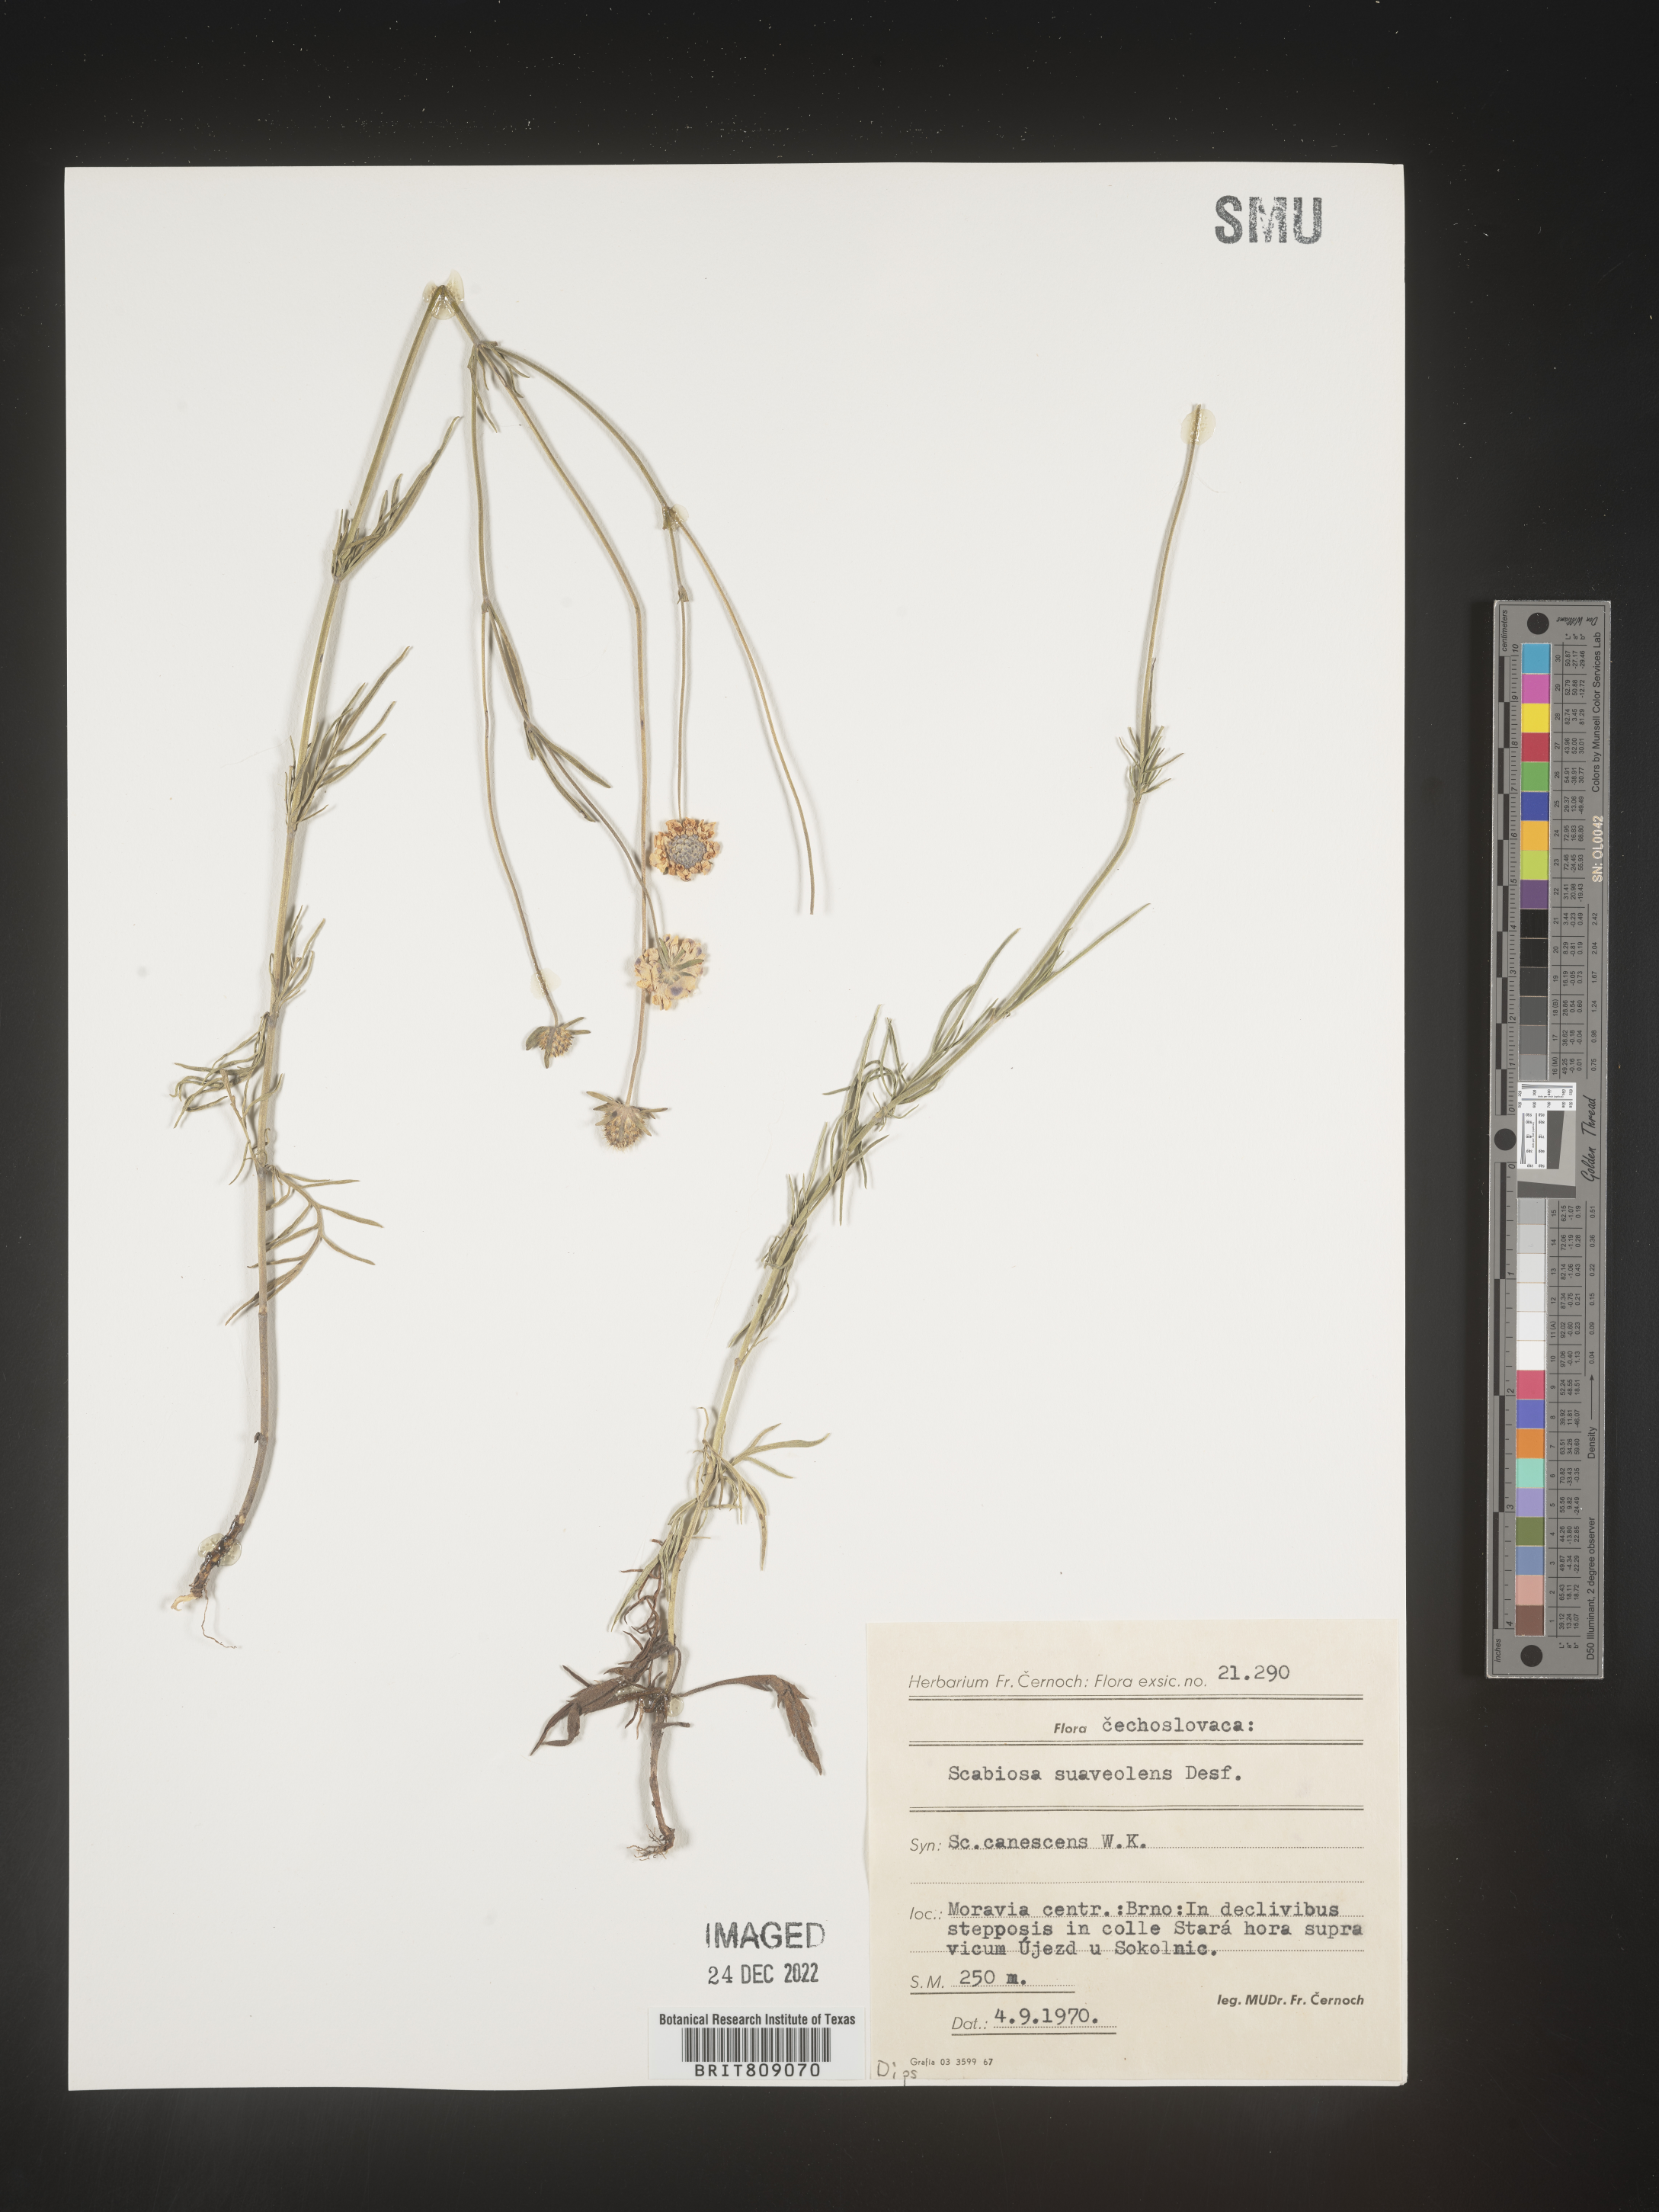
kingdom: Plantae
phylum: Tracheophyta
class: Magnoliopsida
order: Dipsacales
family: Caprifoliaceae
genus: Scabiosa
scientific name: Scabiosa
